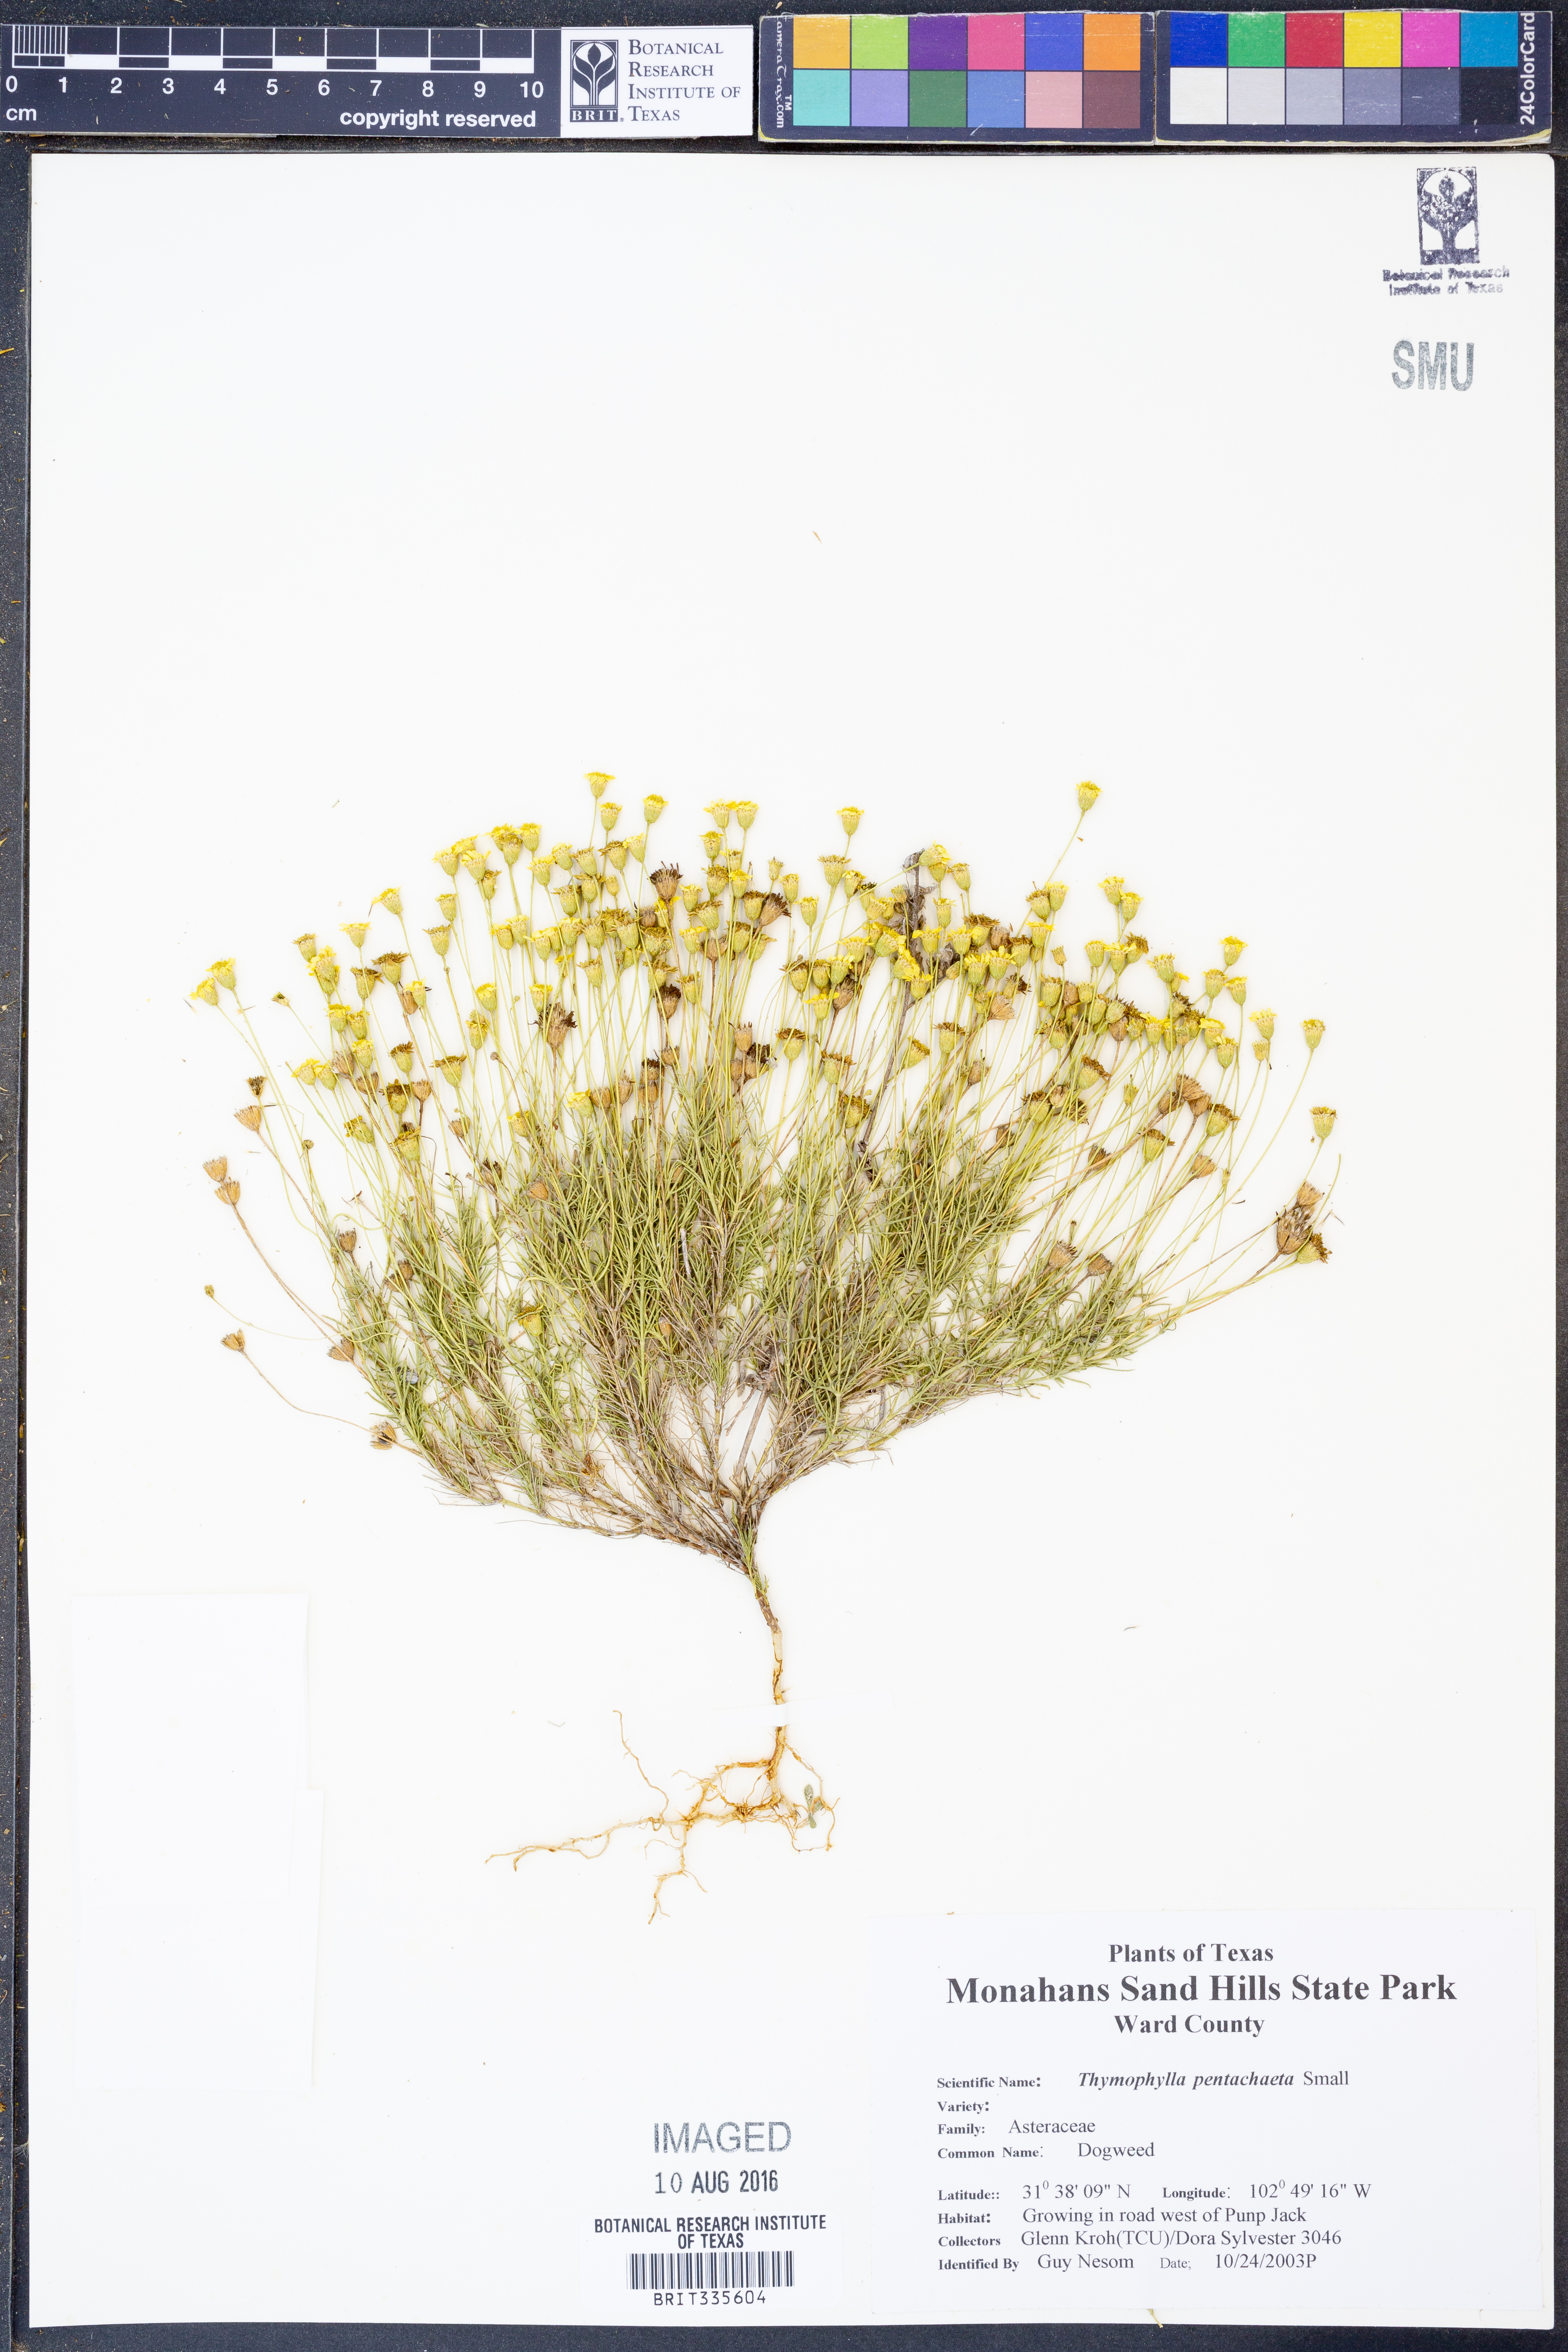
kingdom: Plantae
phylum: Tracheophyta
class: Magnoliopsida
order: Asterales
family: Asteraceae
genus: Thymophylla
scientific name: Thymophylla pentachaeta
